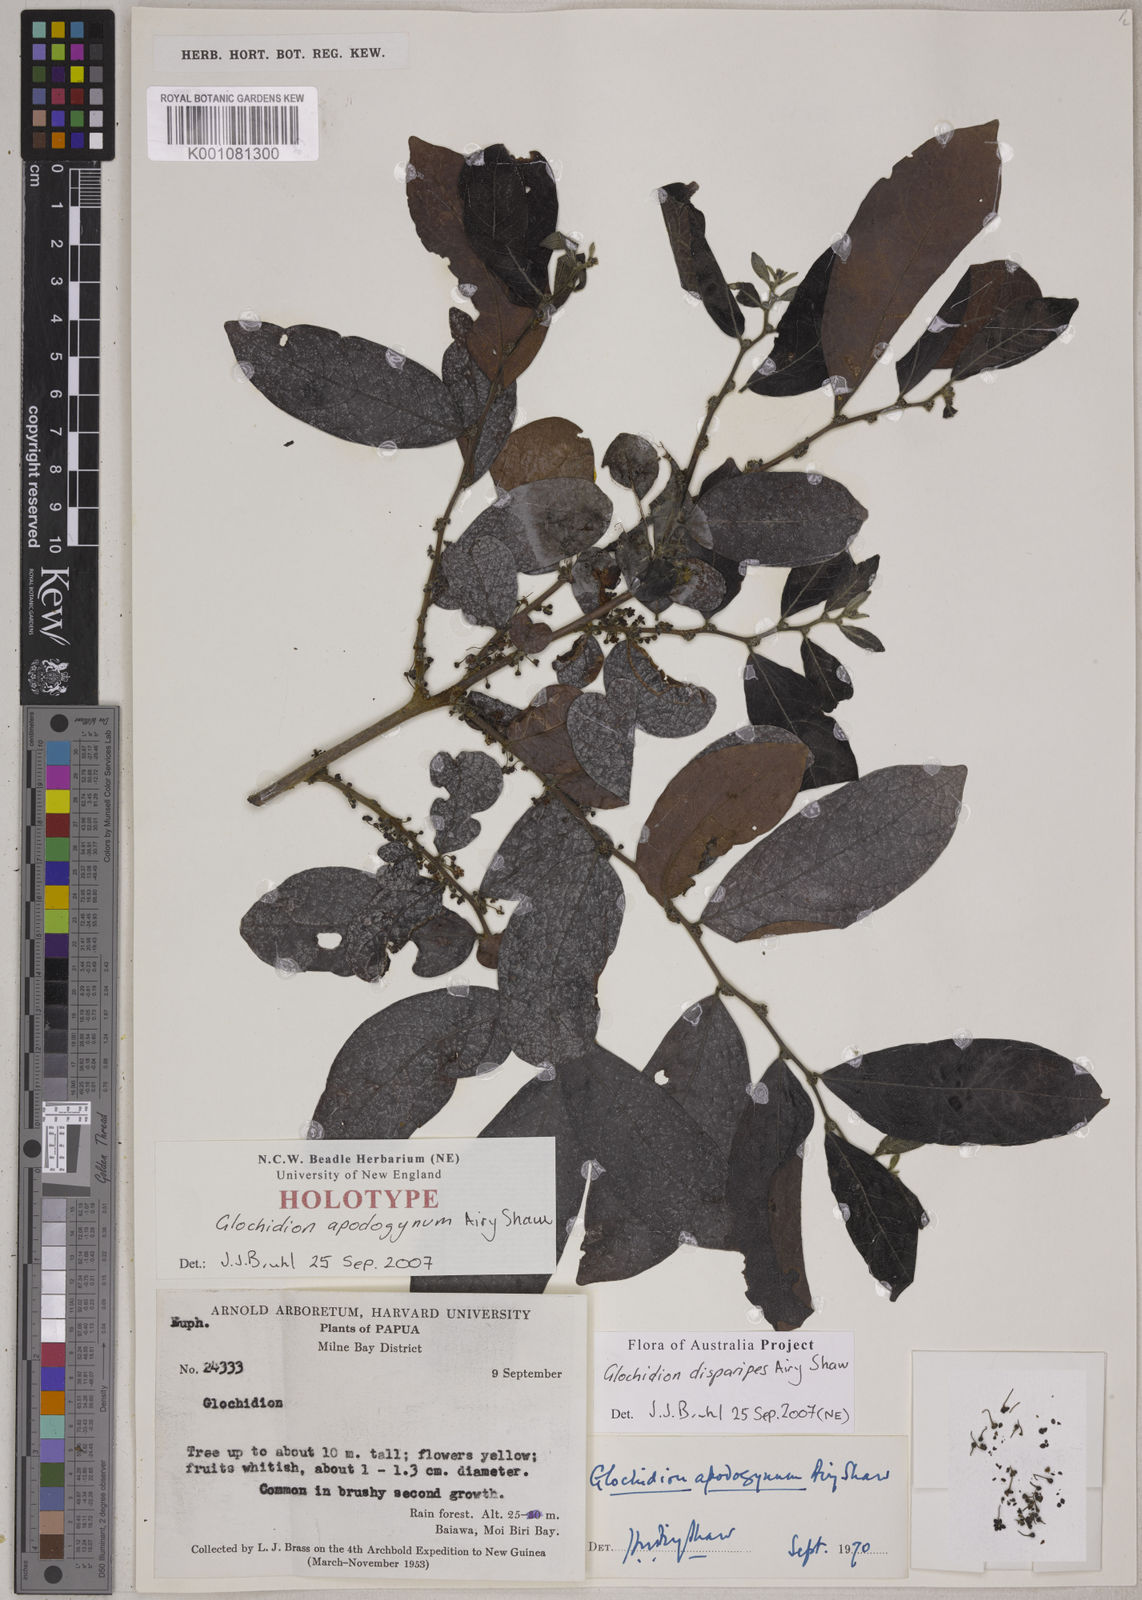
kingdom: Plantae
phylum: Tracheophyta
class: Magnoliopsida
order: Malpighiales
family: Phyllanthaceae
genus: Glochidion
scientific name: Glochidion apodogynum
